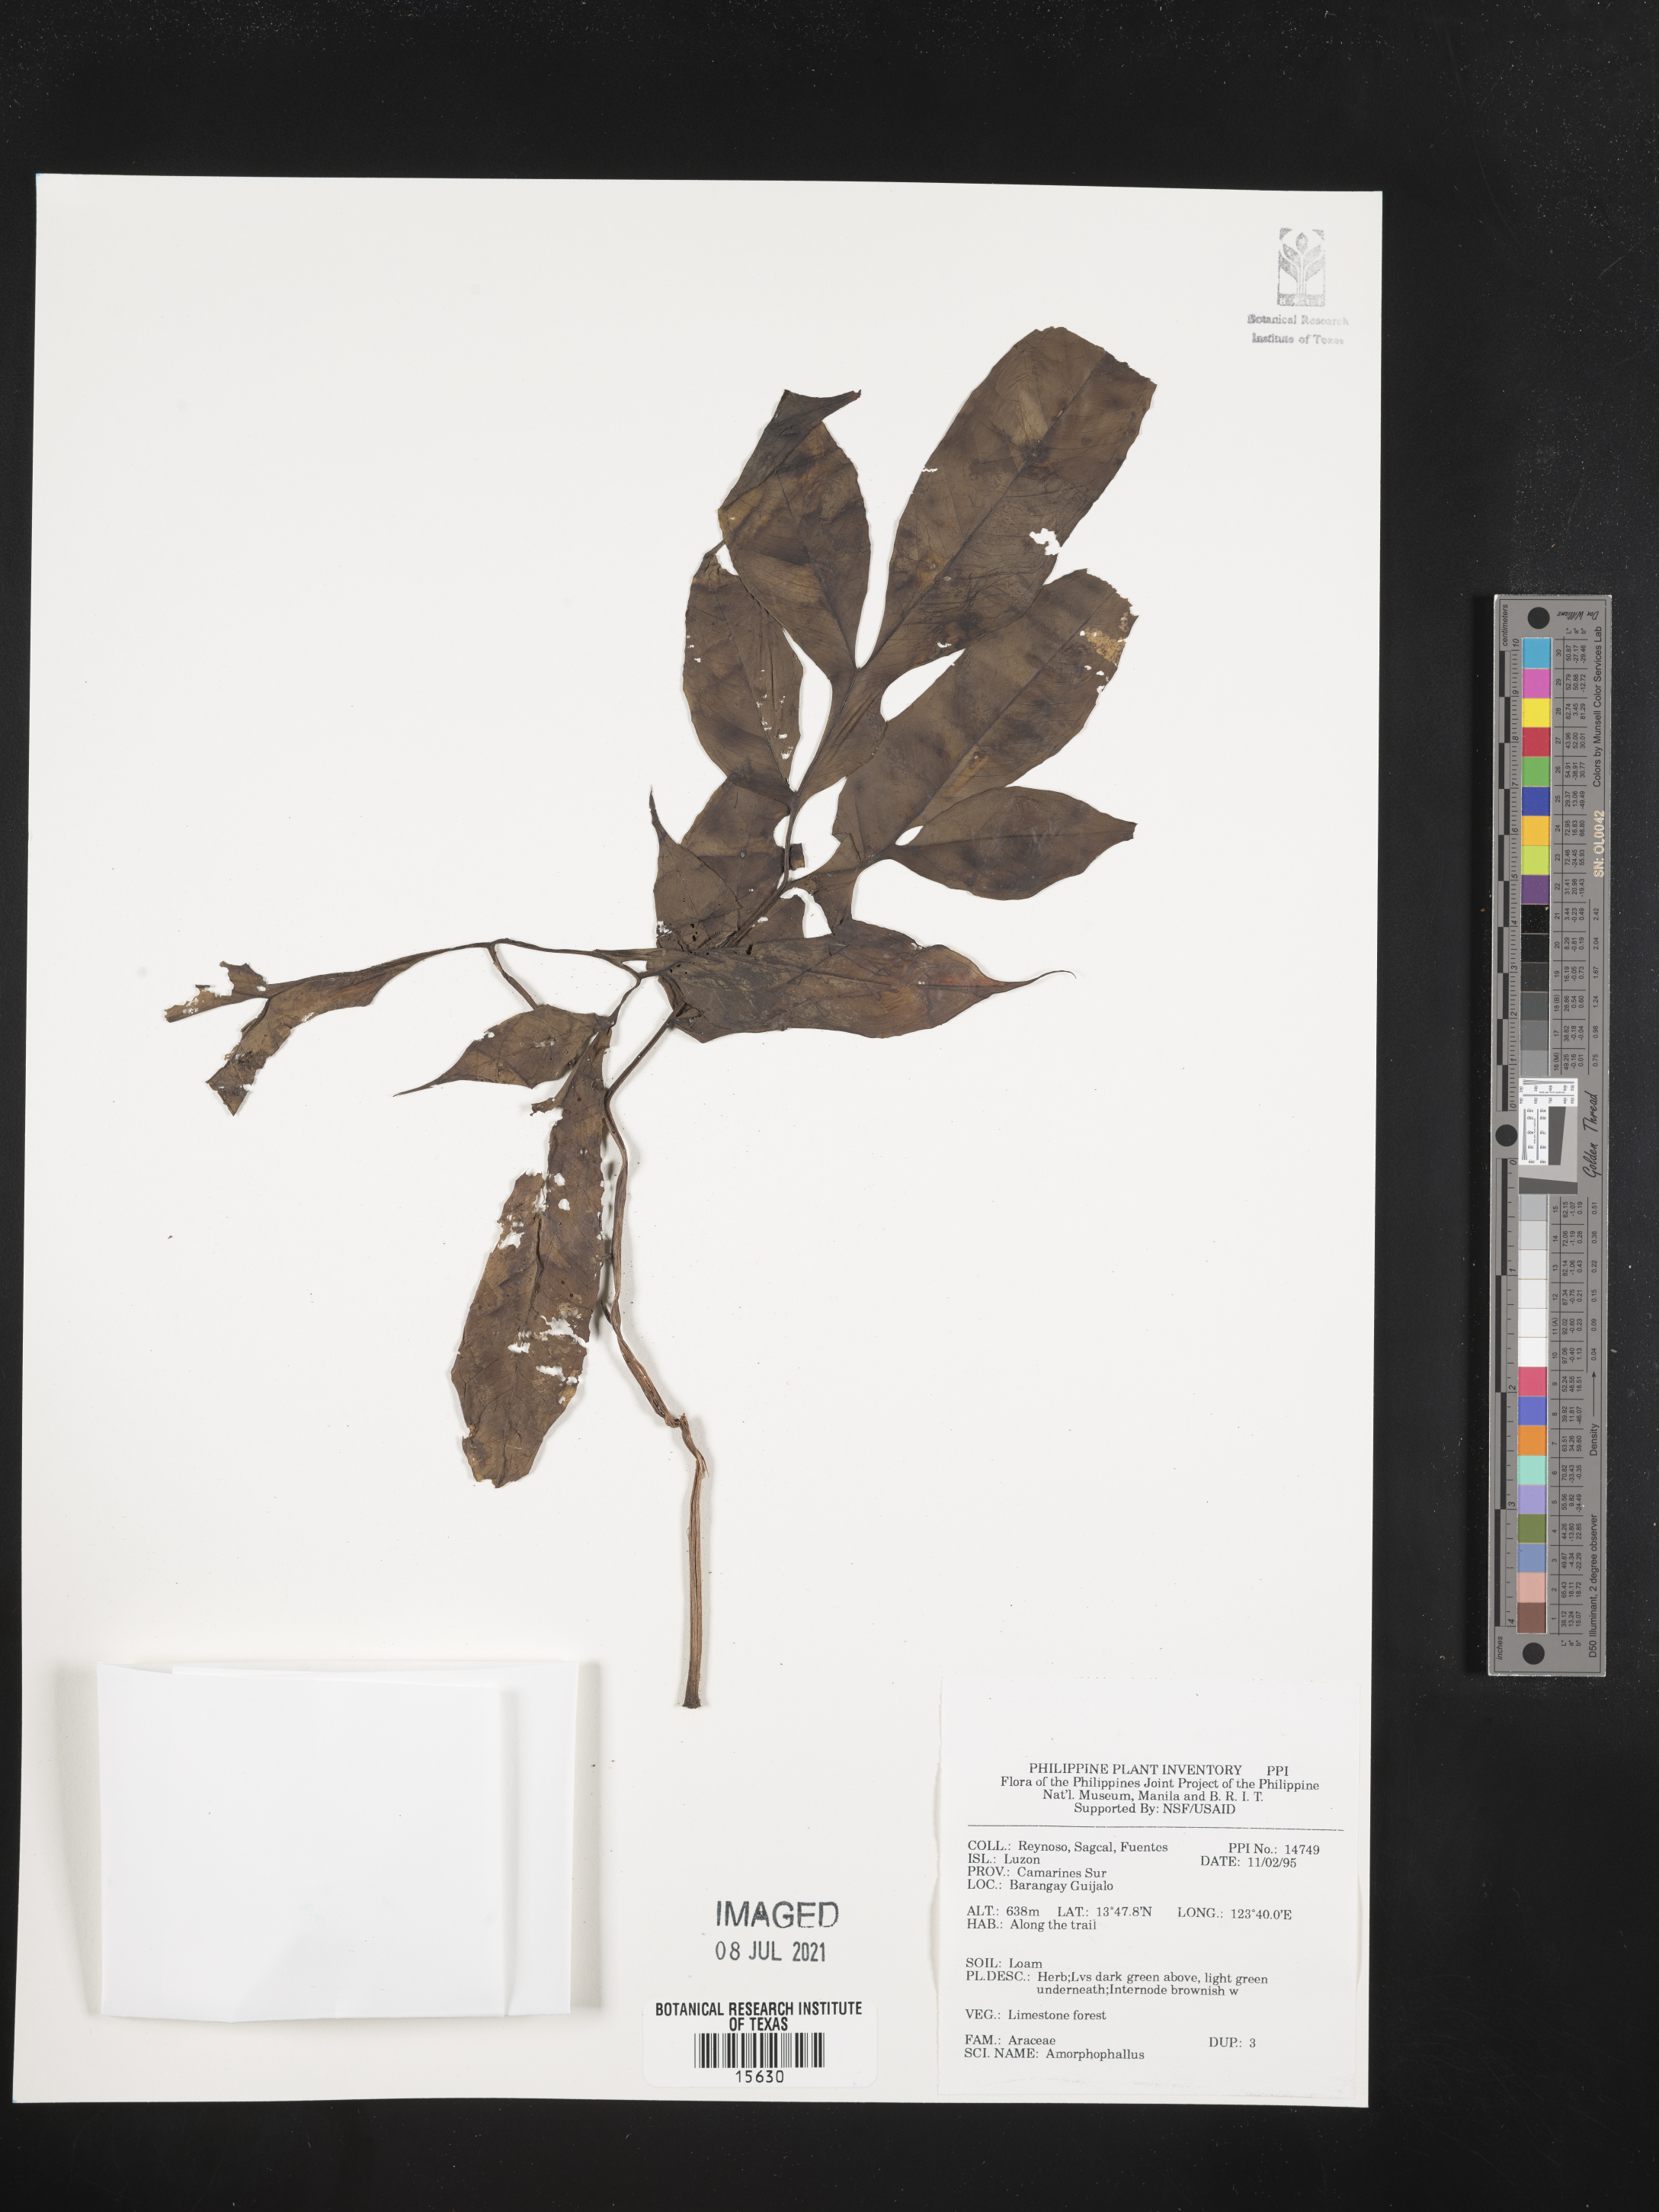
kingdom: Plantae
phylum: Tracheophyta
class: Liliopsida
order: Alismatales
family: Araceae
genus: Amorphophallus
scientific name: Amorphophallus
